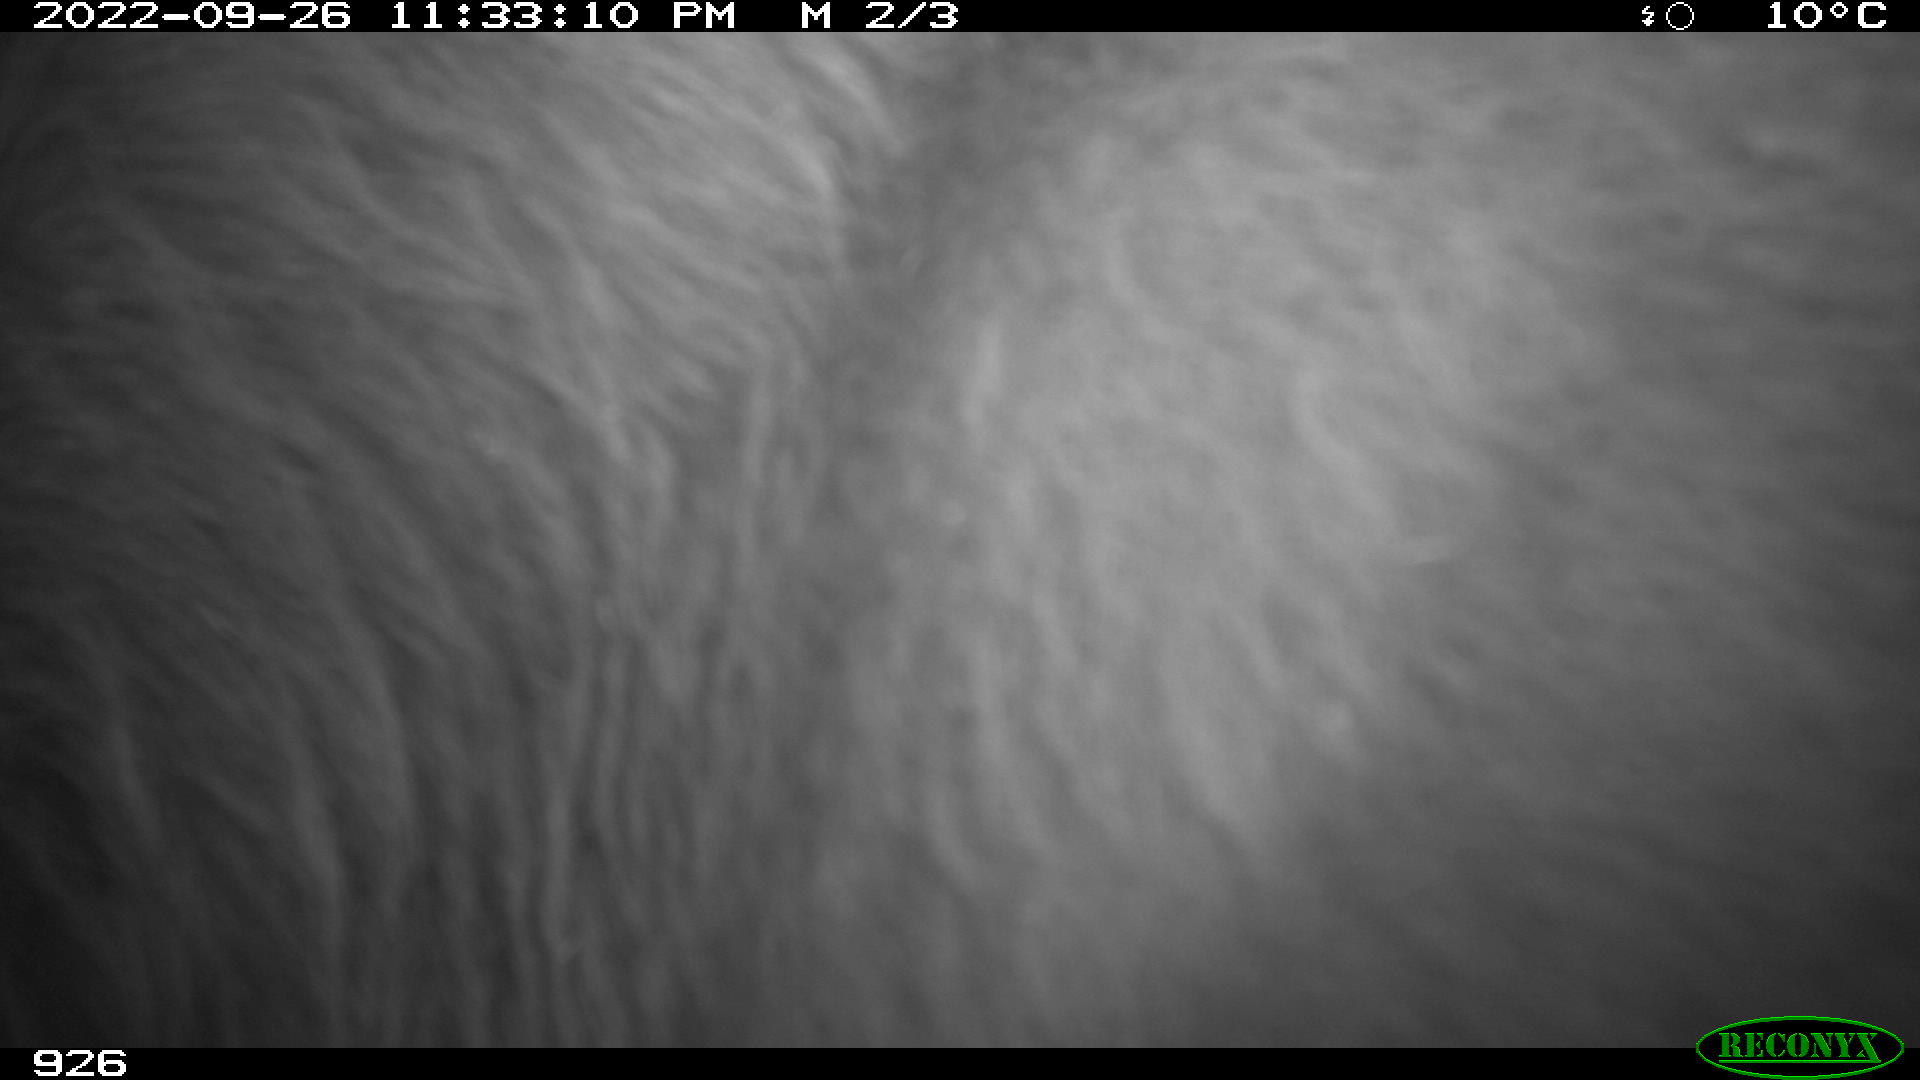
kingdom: Animalia
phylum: Chordata
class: Mammalia
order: Artiodactyla
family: Bovidae
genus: Bos
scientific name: Bos taurus
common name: Domesticated cattle
